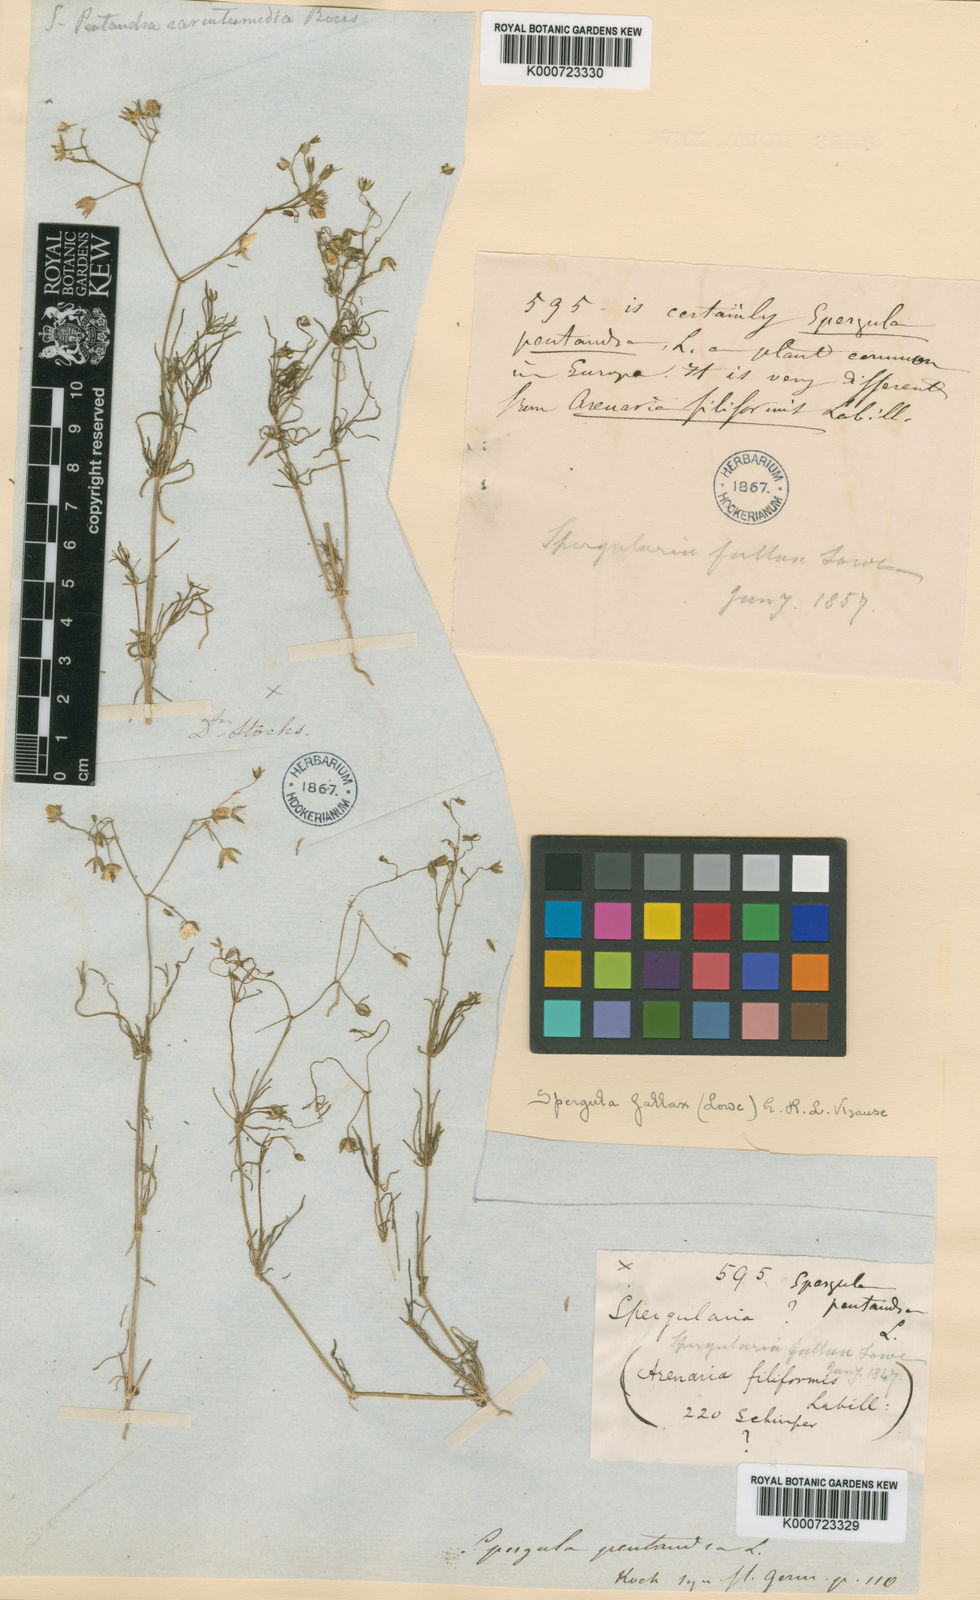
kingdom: Plantae
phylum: Tracheophyta
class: Magnoliopsida
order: Caryophyllales
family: Caryophyllaceae
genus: Spergularia
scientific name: Spergularia flaccida
